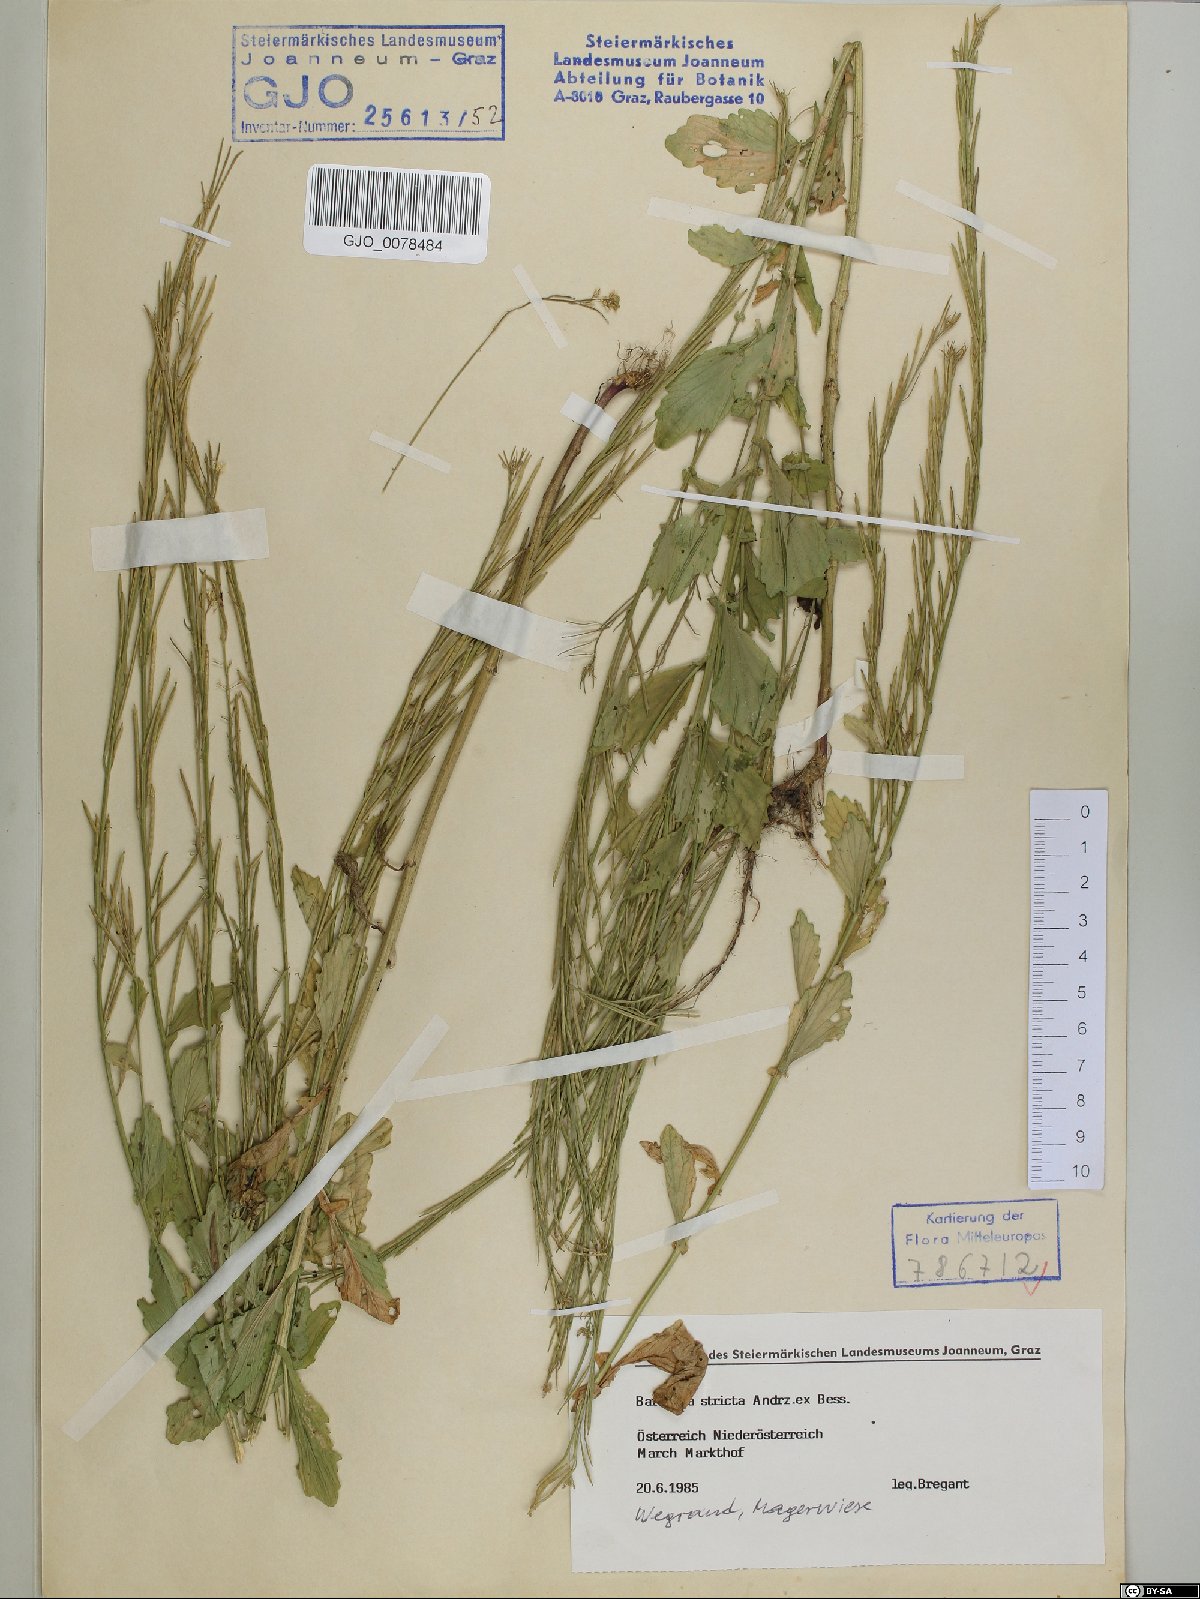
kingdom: Plantae
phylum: Tracheophyta
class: Magnoliopsida
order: Brassicales
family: Brassicaceae
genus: Barbarea
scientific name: Barbarea stricta
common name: Small-flowered winter-cress
